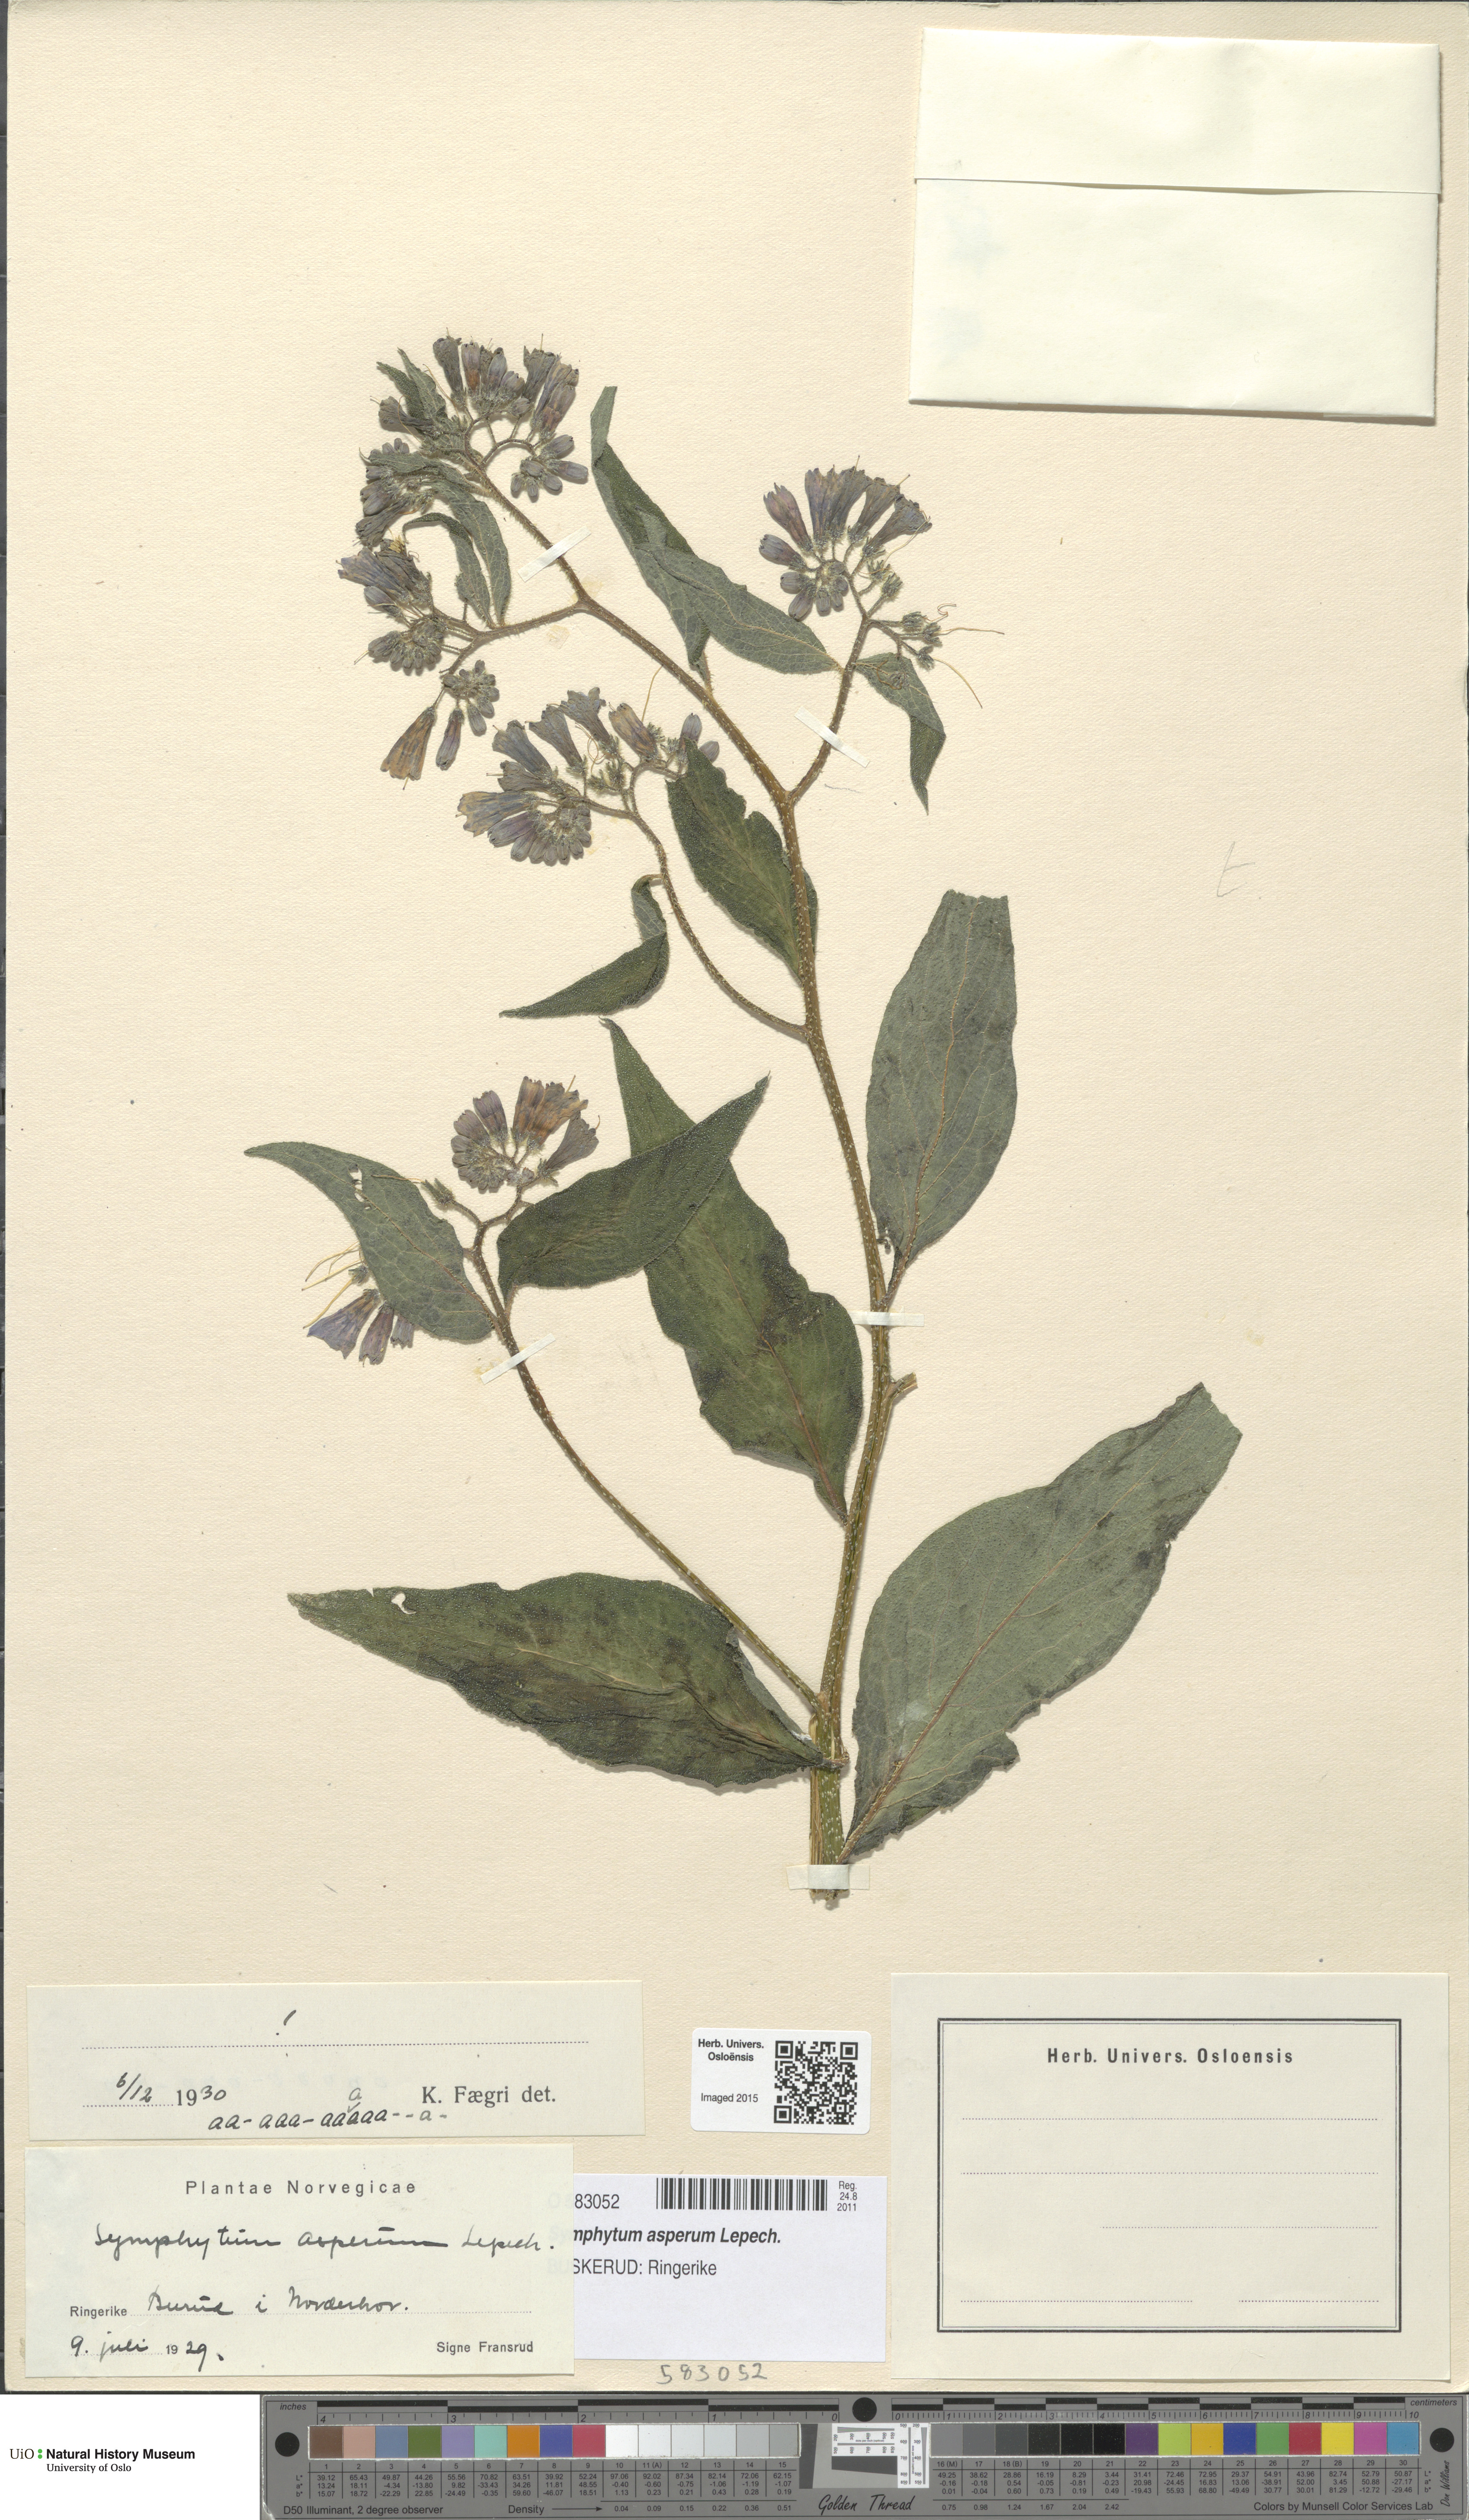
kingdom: Plantae
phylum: Tracheophyta
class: Magnoliopsida
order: Boraginales
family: Boraginaceae
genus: Symphytum
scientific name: Symphytum asperum
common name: Prickly comfrey
